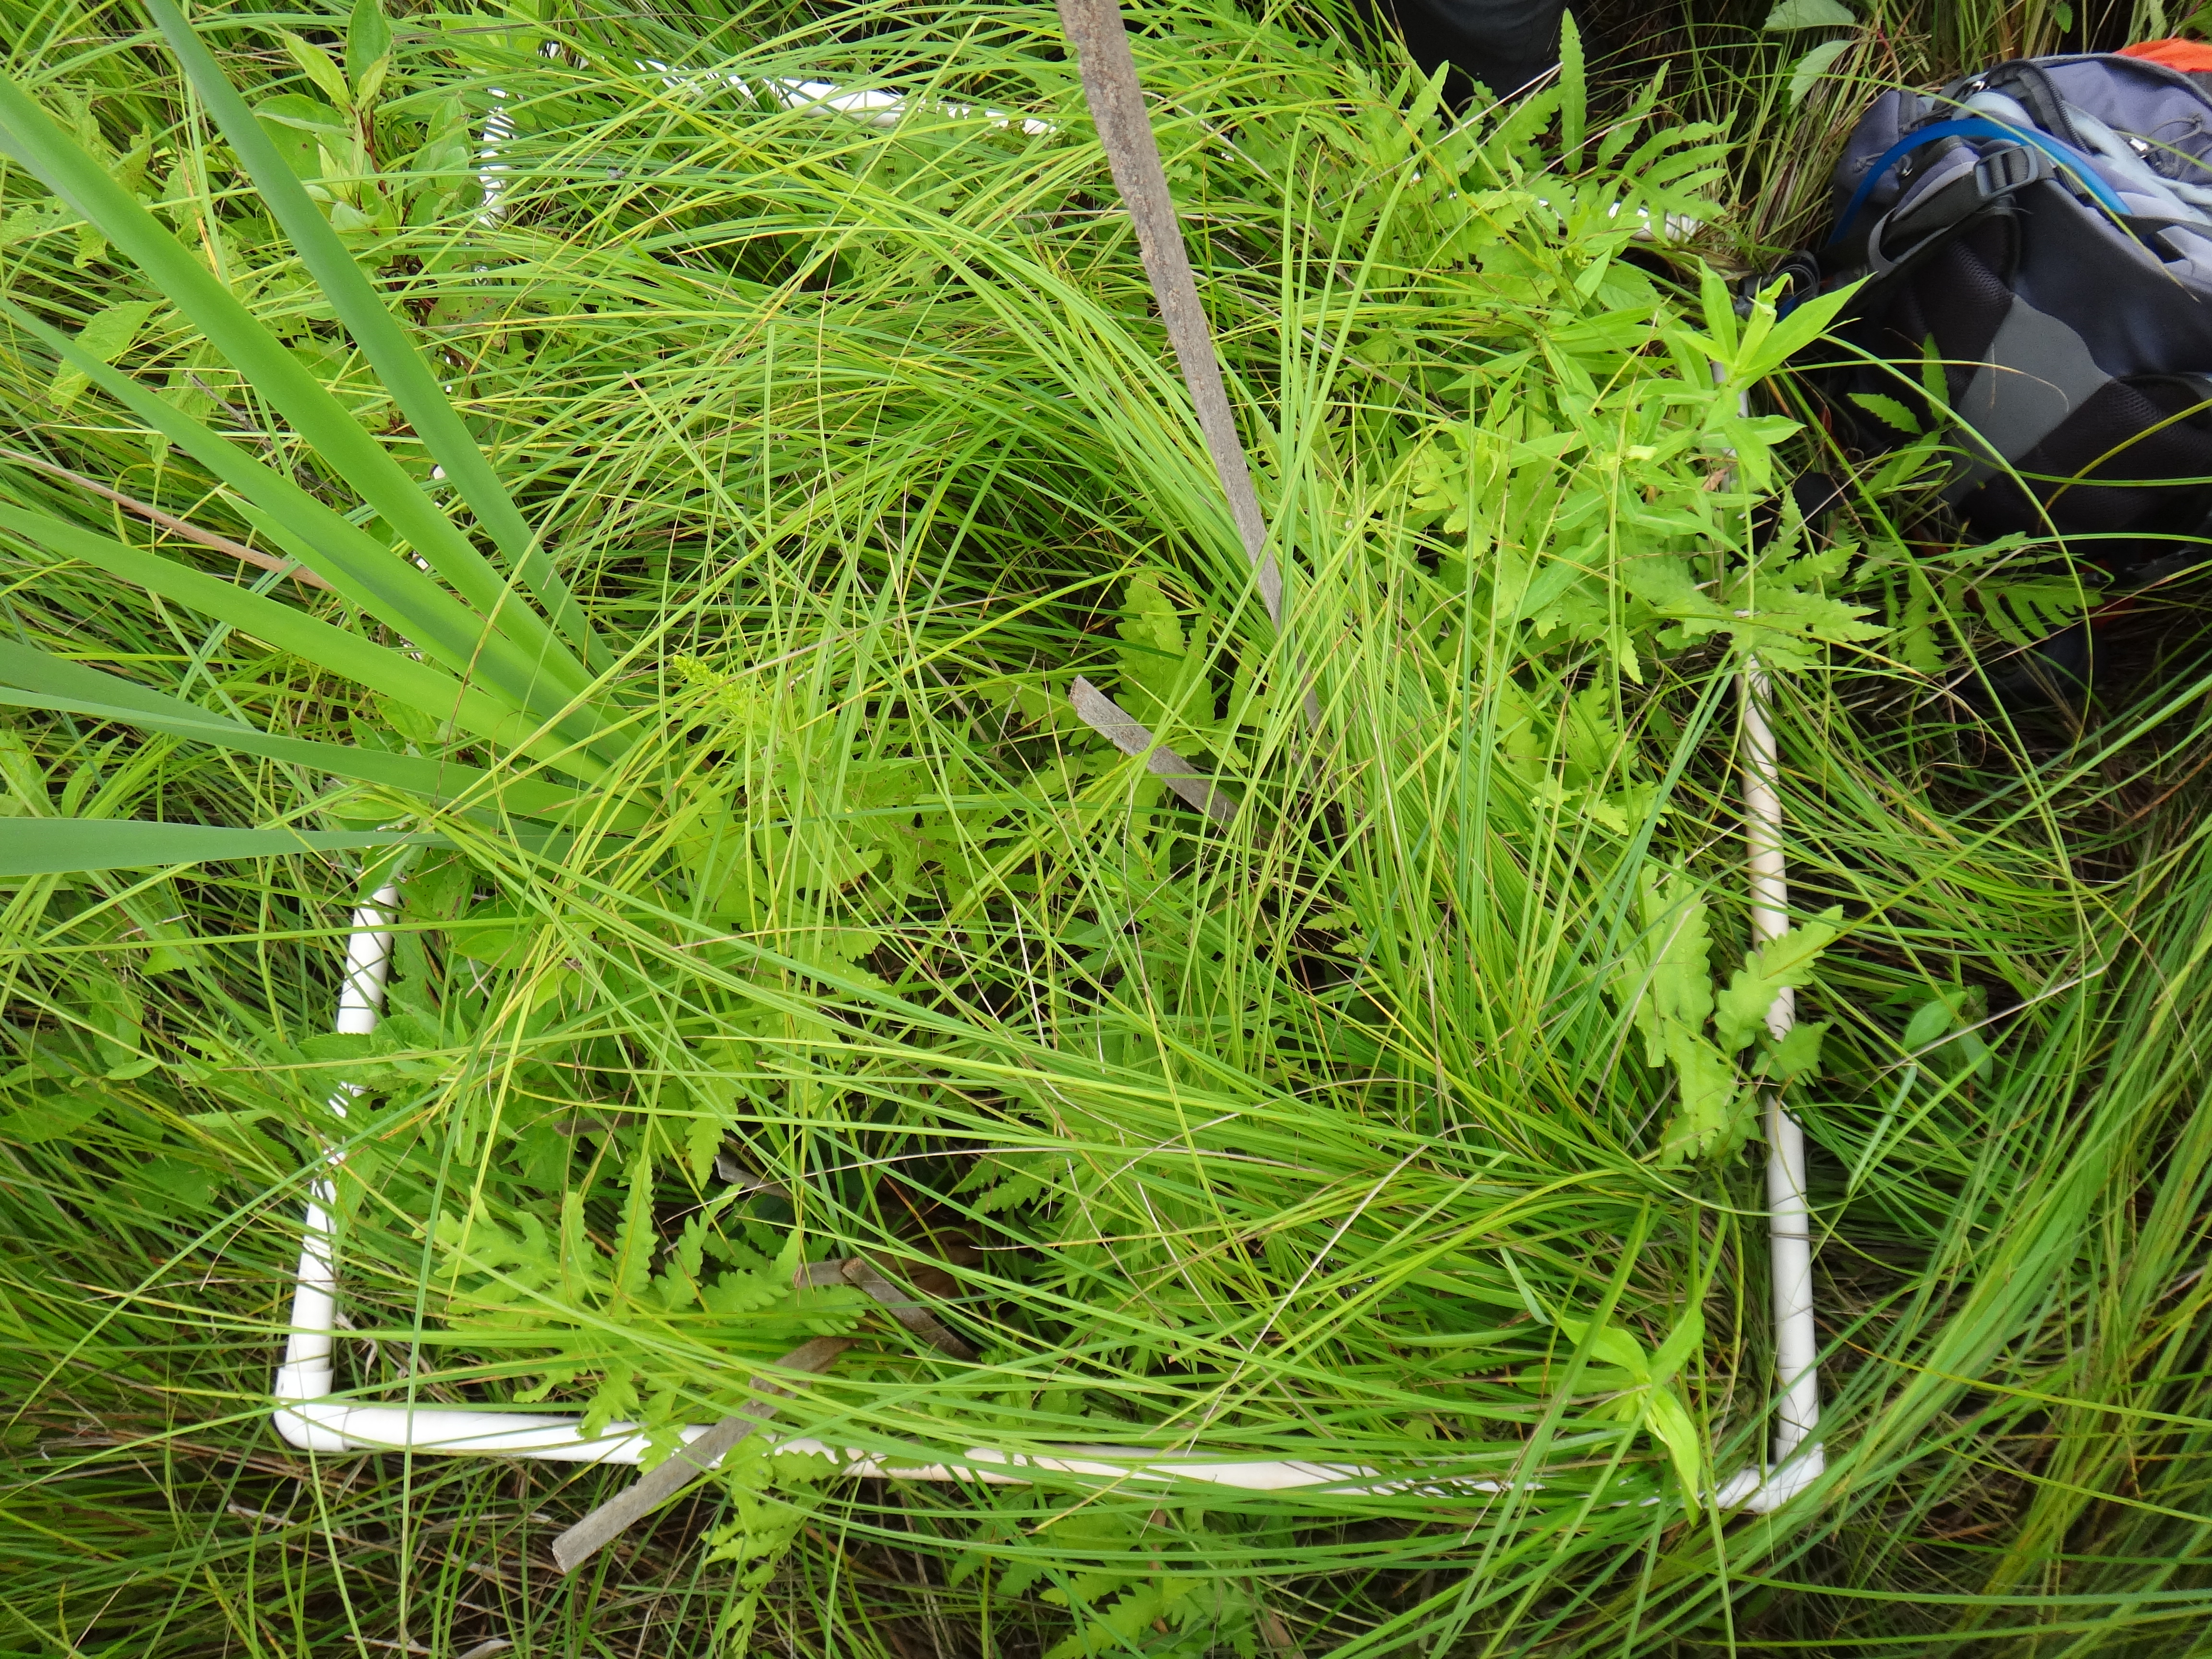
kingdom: Plantae
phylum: Tracheophyta
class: Liliopsida
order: Poales
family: Cyperaceae
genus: Carex
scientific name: Carex stricta
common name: Hummock sedge
